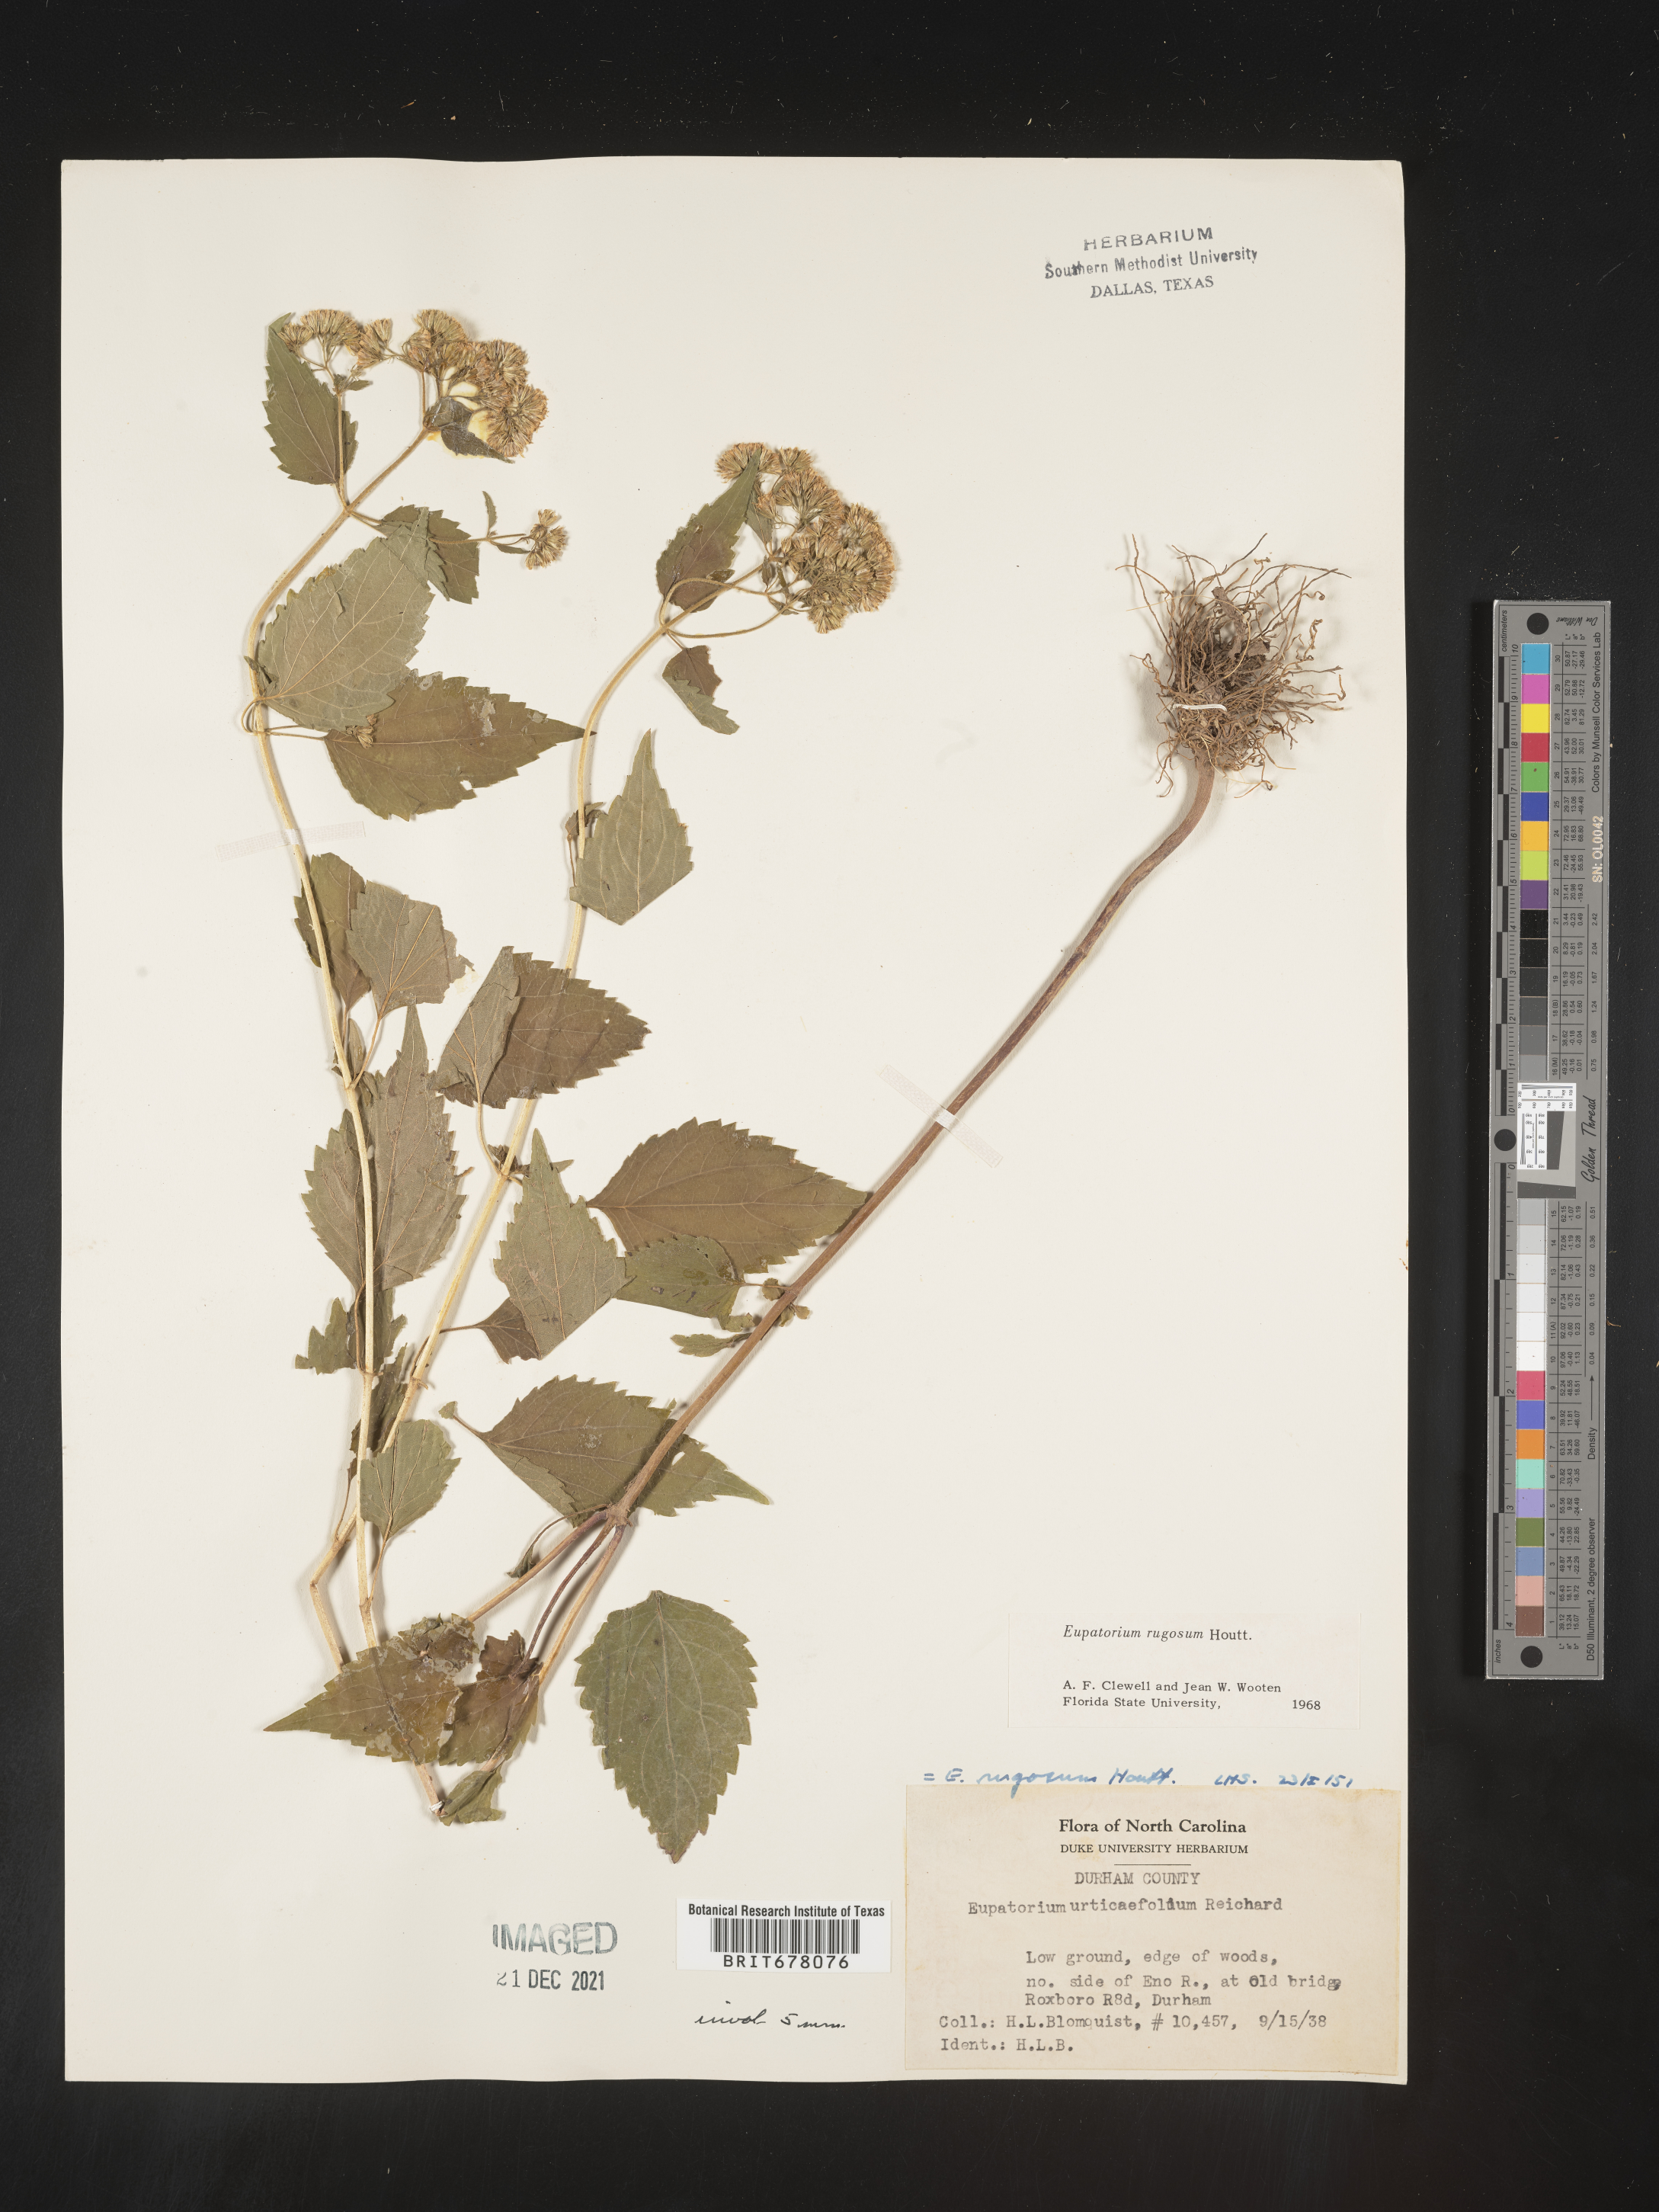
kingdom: Plantae
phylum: Tracheophyta
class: Magnoliopsida
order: Asterales
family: Asteraceae
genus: Eupatorium
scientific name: Eupatorium
